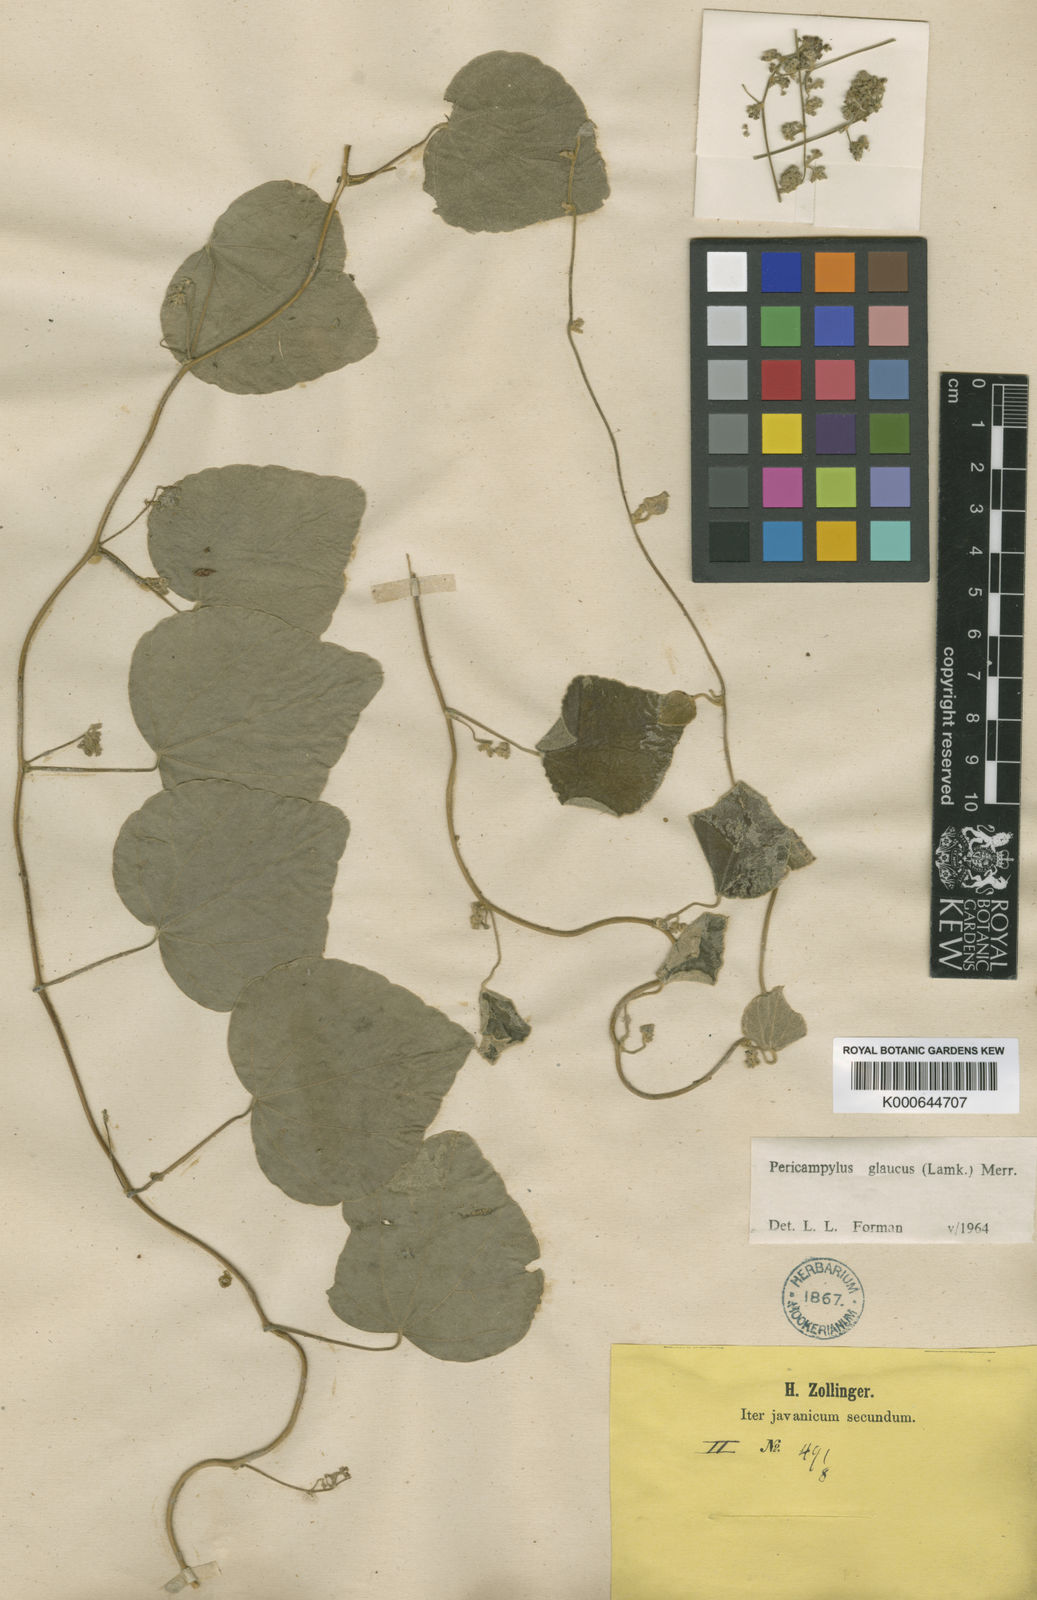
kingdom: Plantae
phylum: Tracheophyta
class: Magnoliopsida
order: Ranunculales
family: Menispermaceae
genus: Pericampylus
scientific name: Pericampylus glaucus
